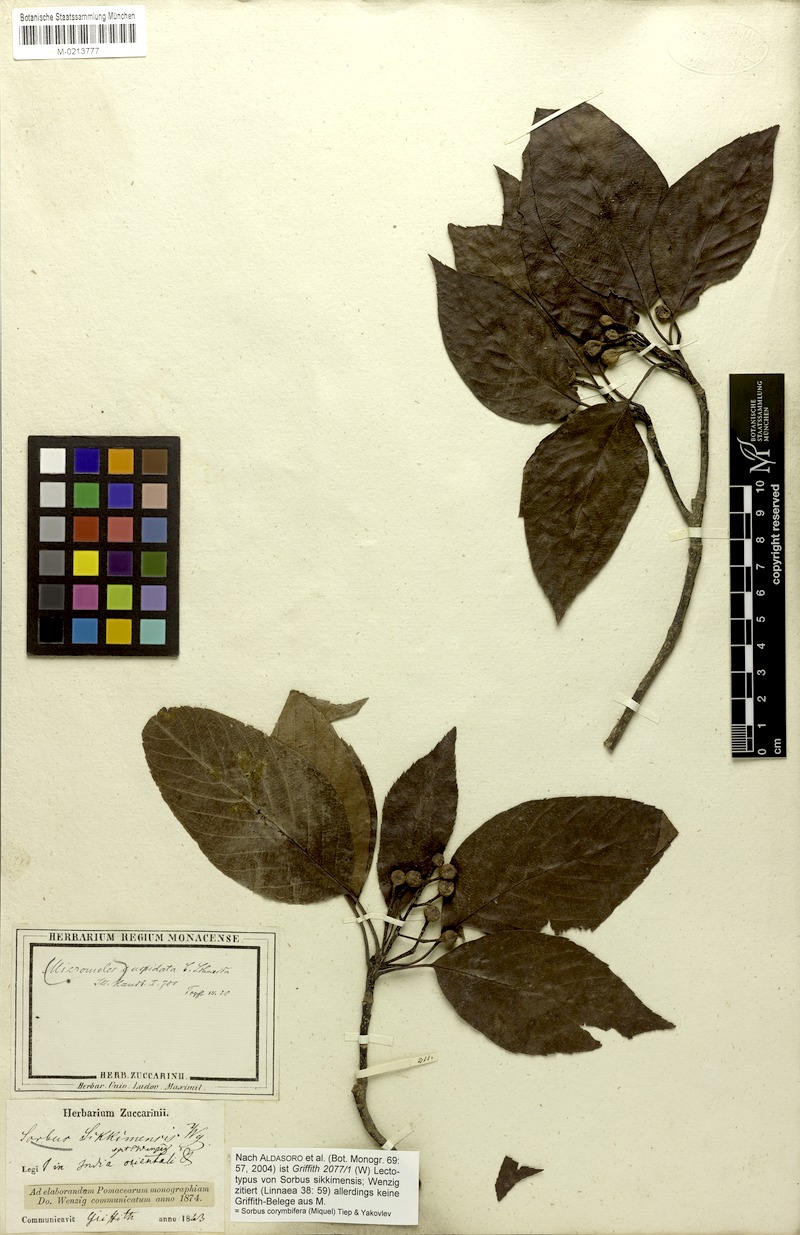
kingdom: Plantae
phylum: Tracheophyta
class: Magnoliopsida
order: Rosales
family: Rosaceae
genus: Sorbus
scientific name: Sorbus corymbifera
